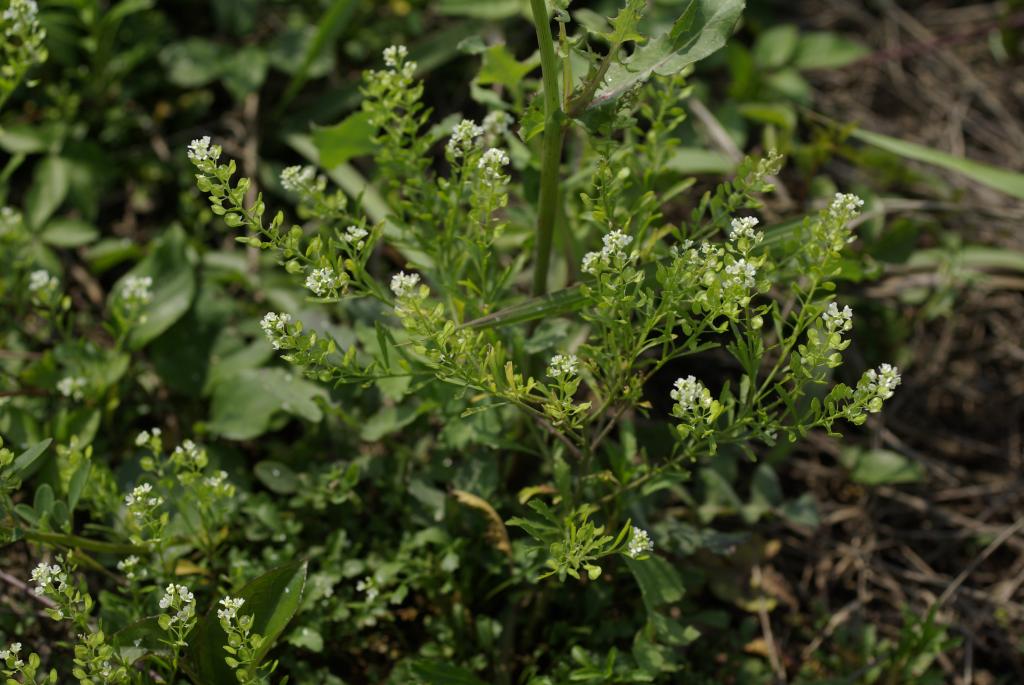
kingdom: Plantae
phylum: Tracheophyta
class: Magnoliopsida
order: Brassicales
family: Brassicaceae
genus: Lepidium
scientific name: Lepidium virginicum
